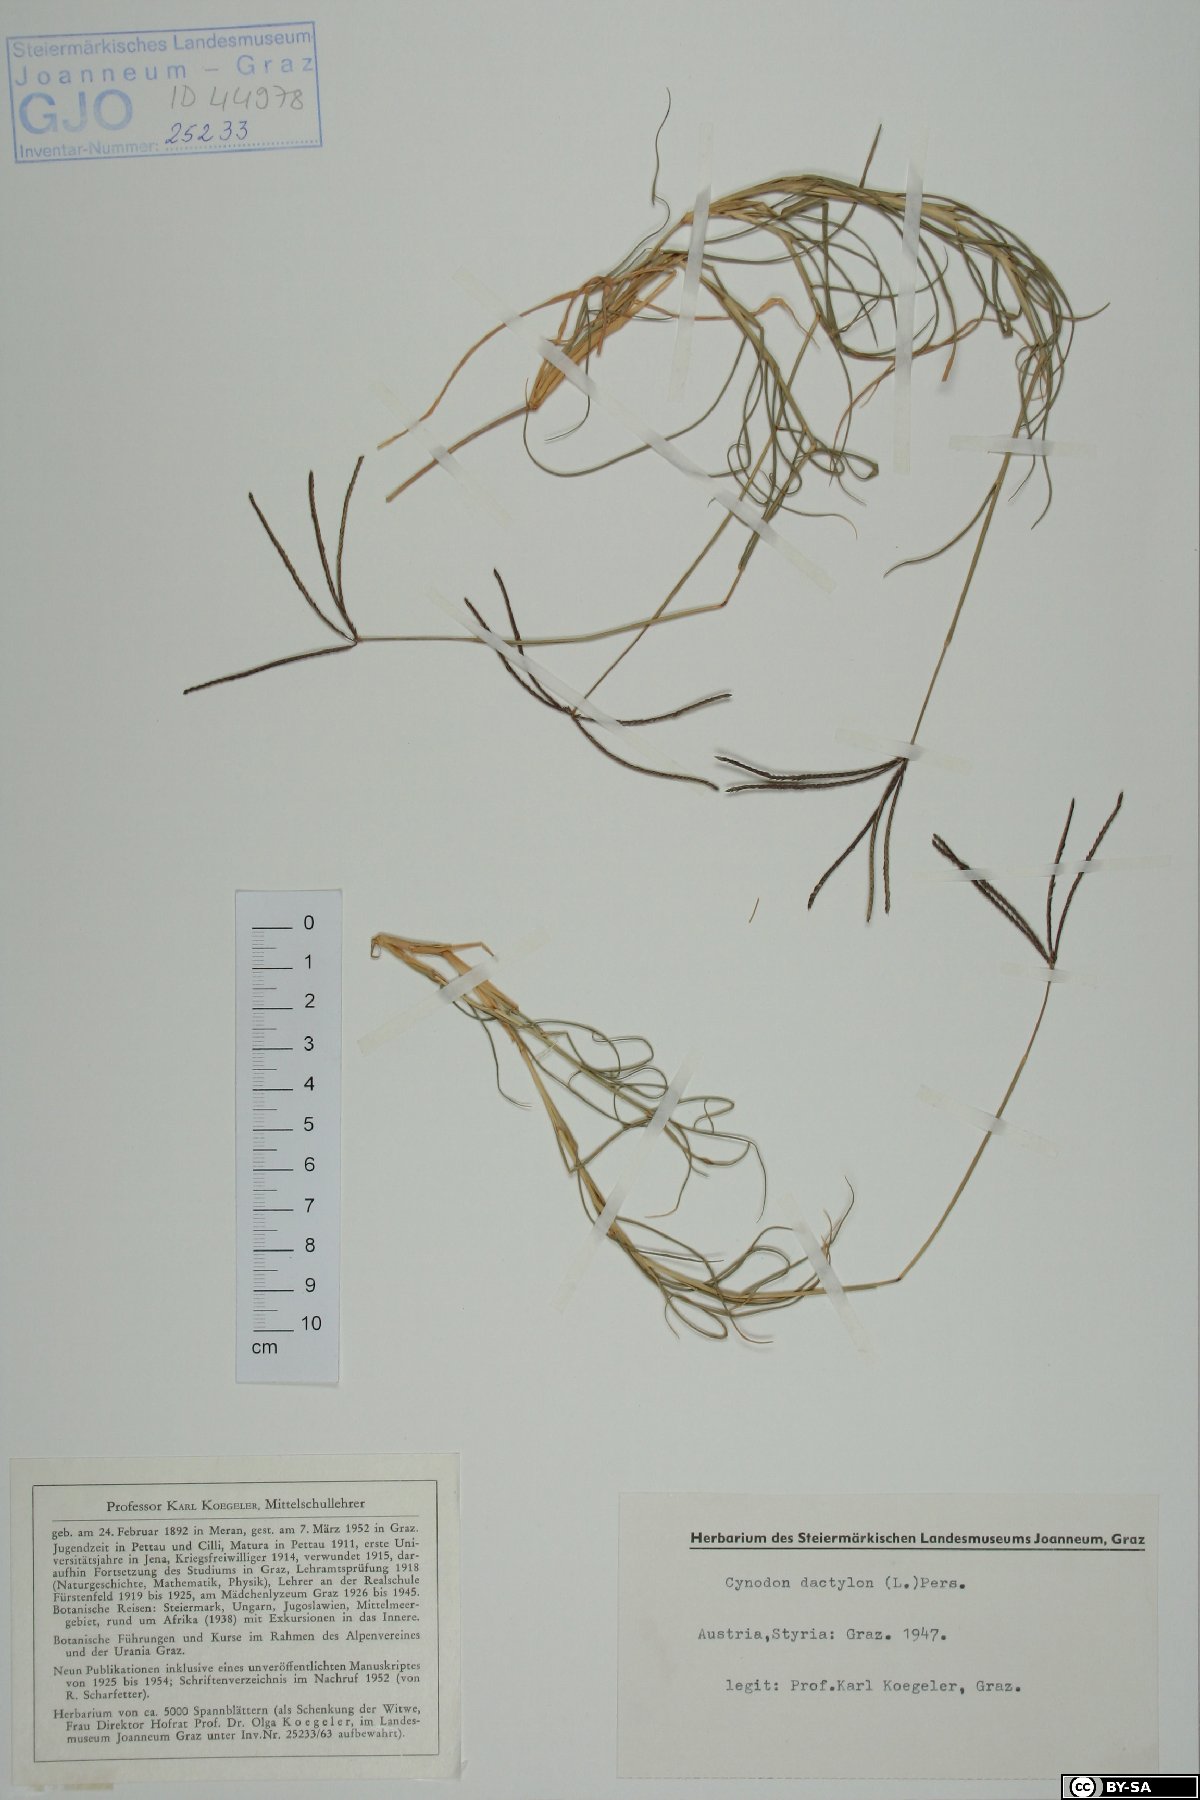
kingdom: Plantae
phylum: Tracheophyta
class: Liliopsida
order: Poales
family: Poaceae
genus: Cynodon
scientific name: Cynodon dactylon
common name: Bermuda grass
